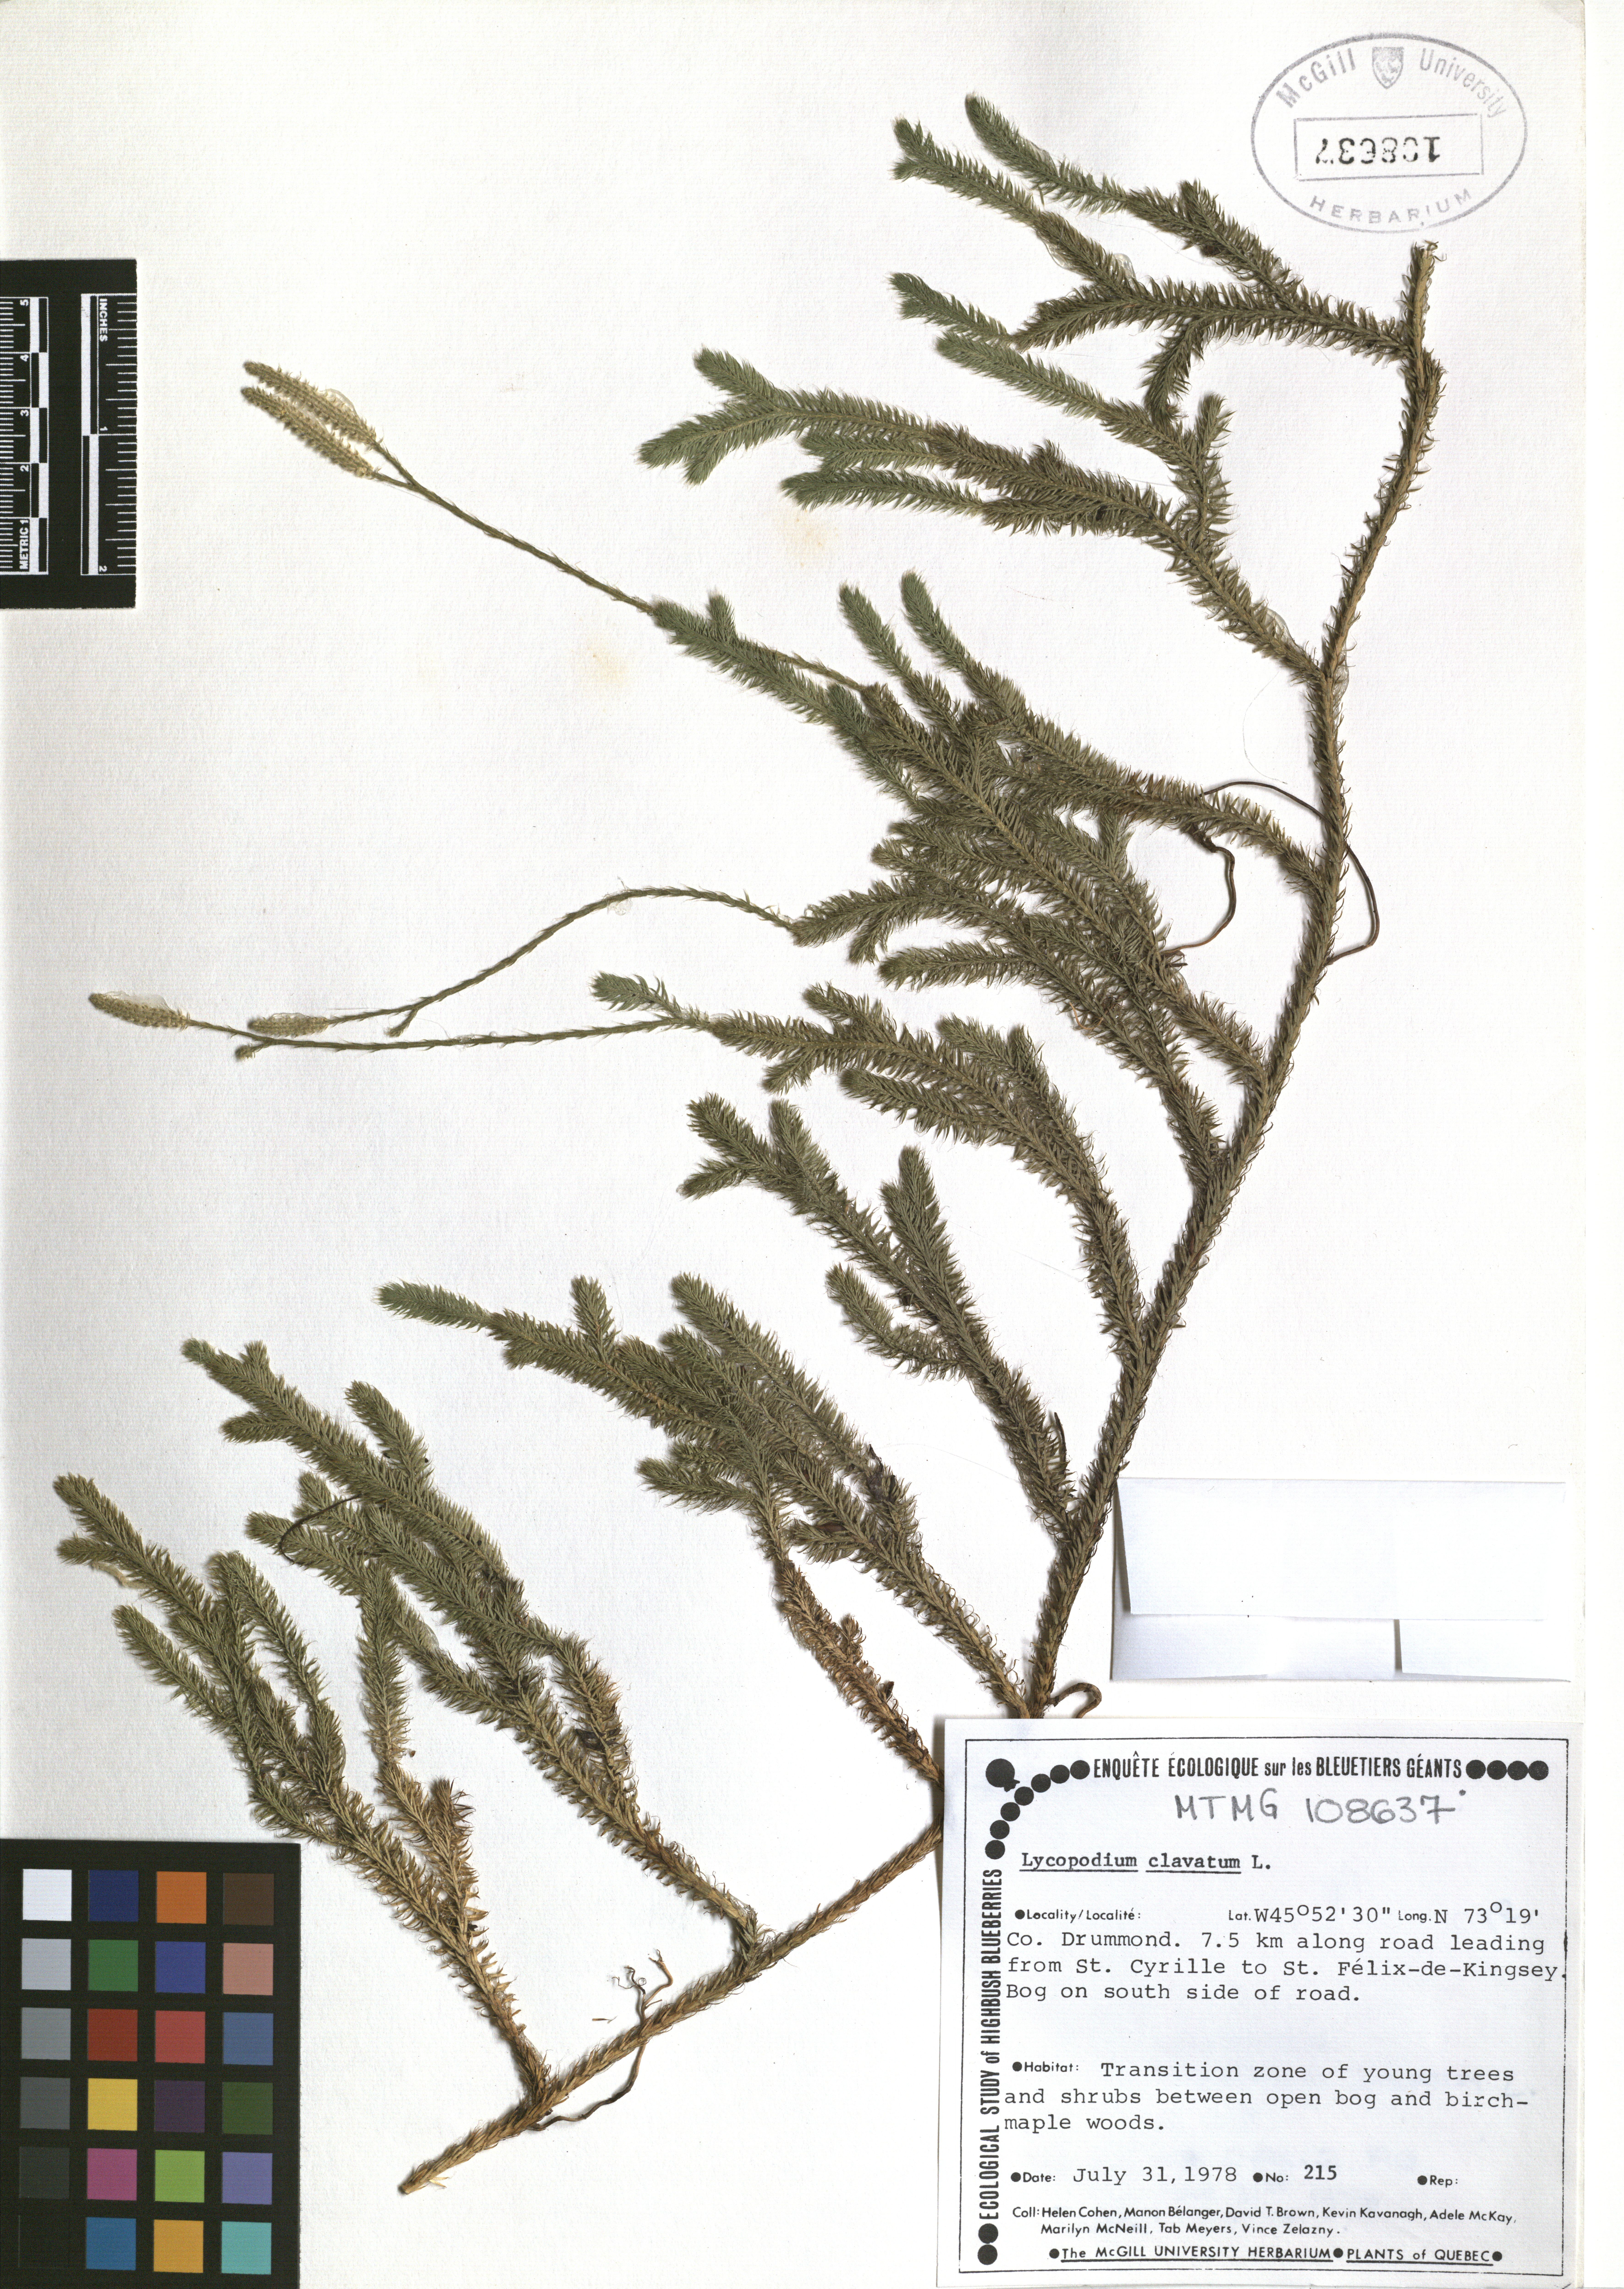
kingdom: Plantae
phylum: Tracheophyta
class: Lycopodiopsida
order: Lycopodiales
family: Lycopodiaceae
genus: Lycopodium
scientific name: Lycopodium clavatum
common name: Stag's-horn clubmoss
